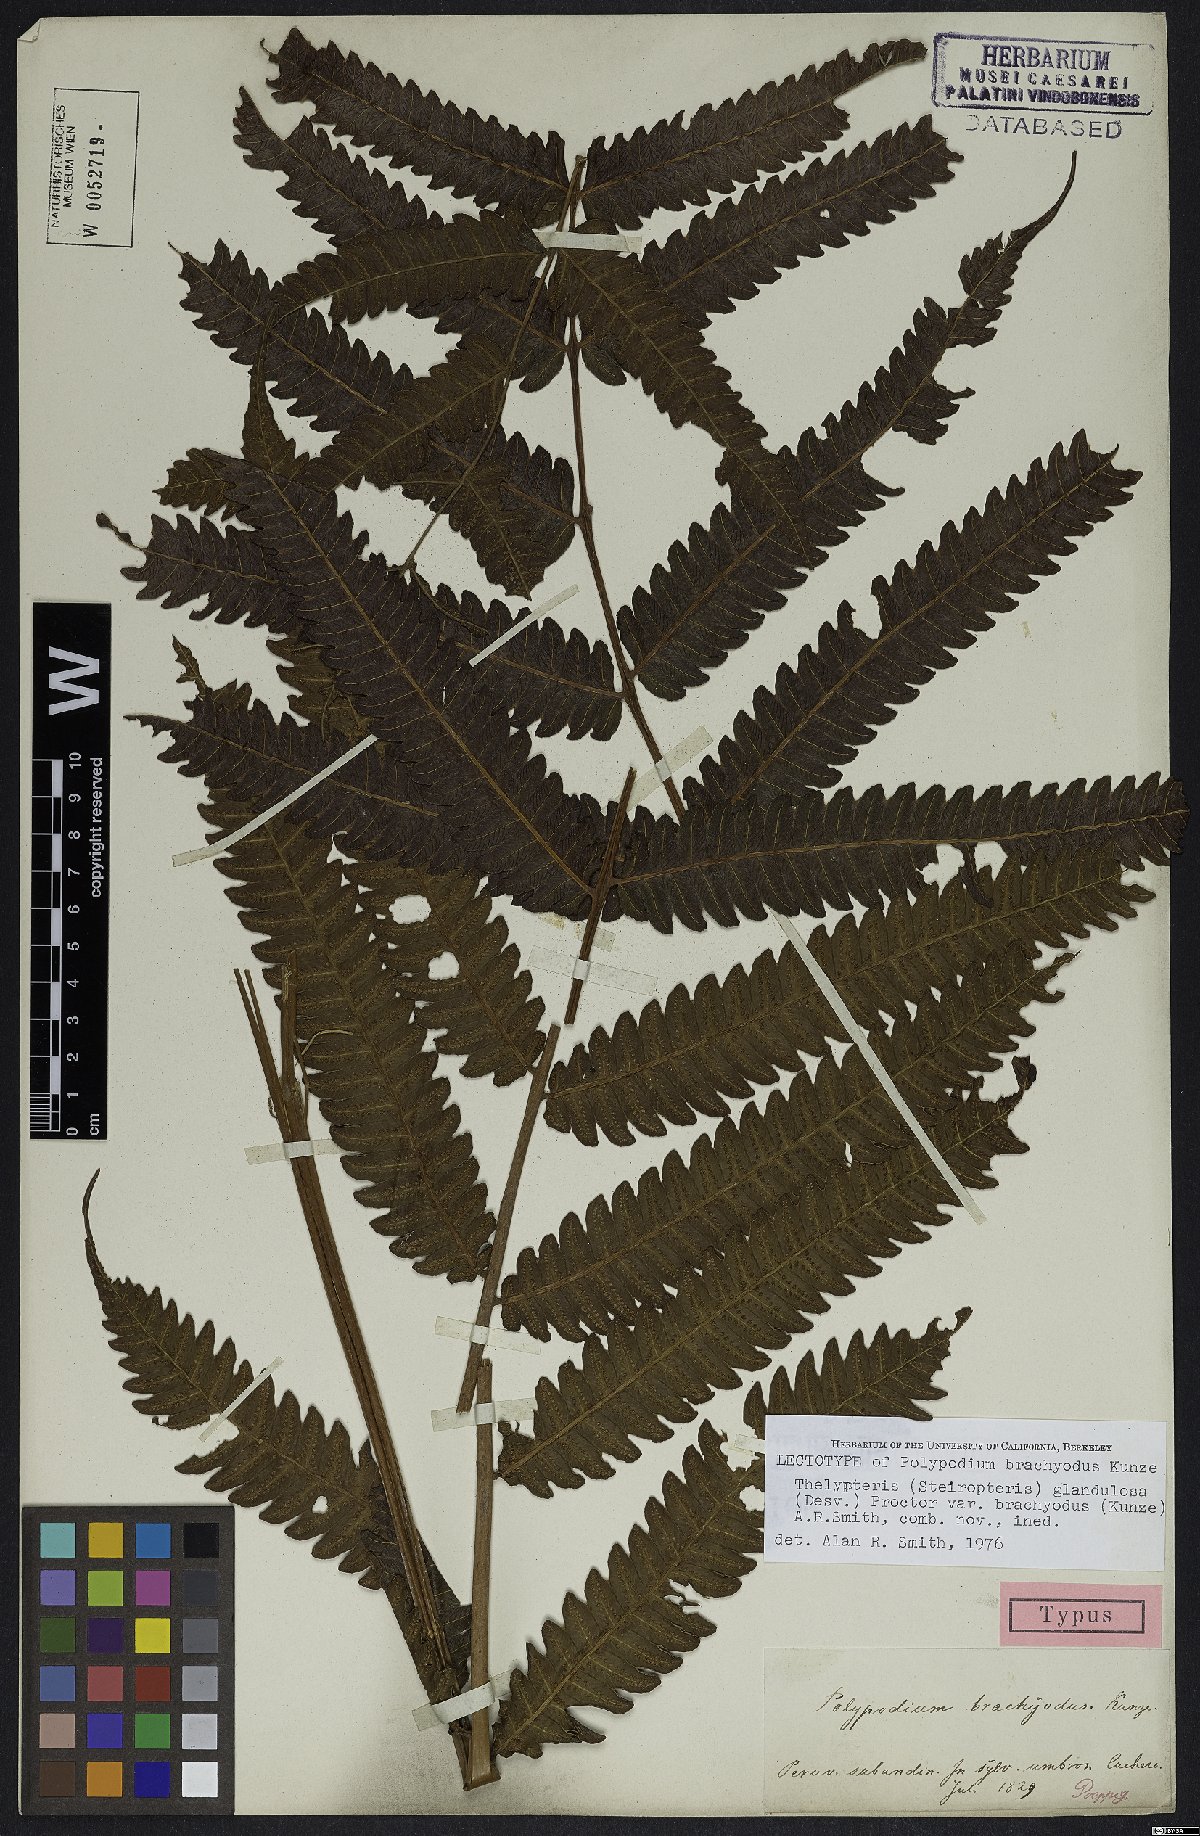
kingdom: Plantae
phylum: Tracheophyta
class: Polypodiopsida
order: Polypodiales
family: Thelypteridaceae
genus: Steiropteris
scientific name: Steiropteris glandulosa
